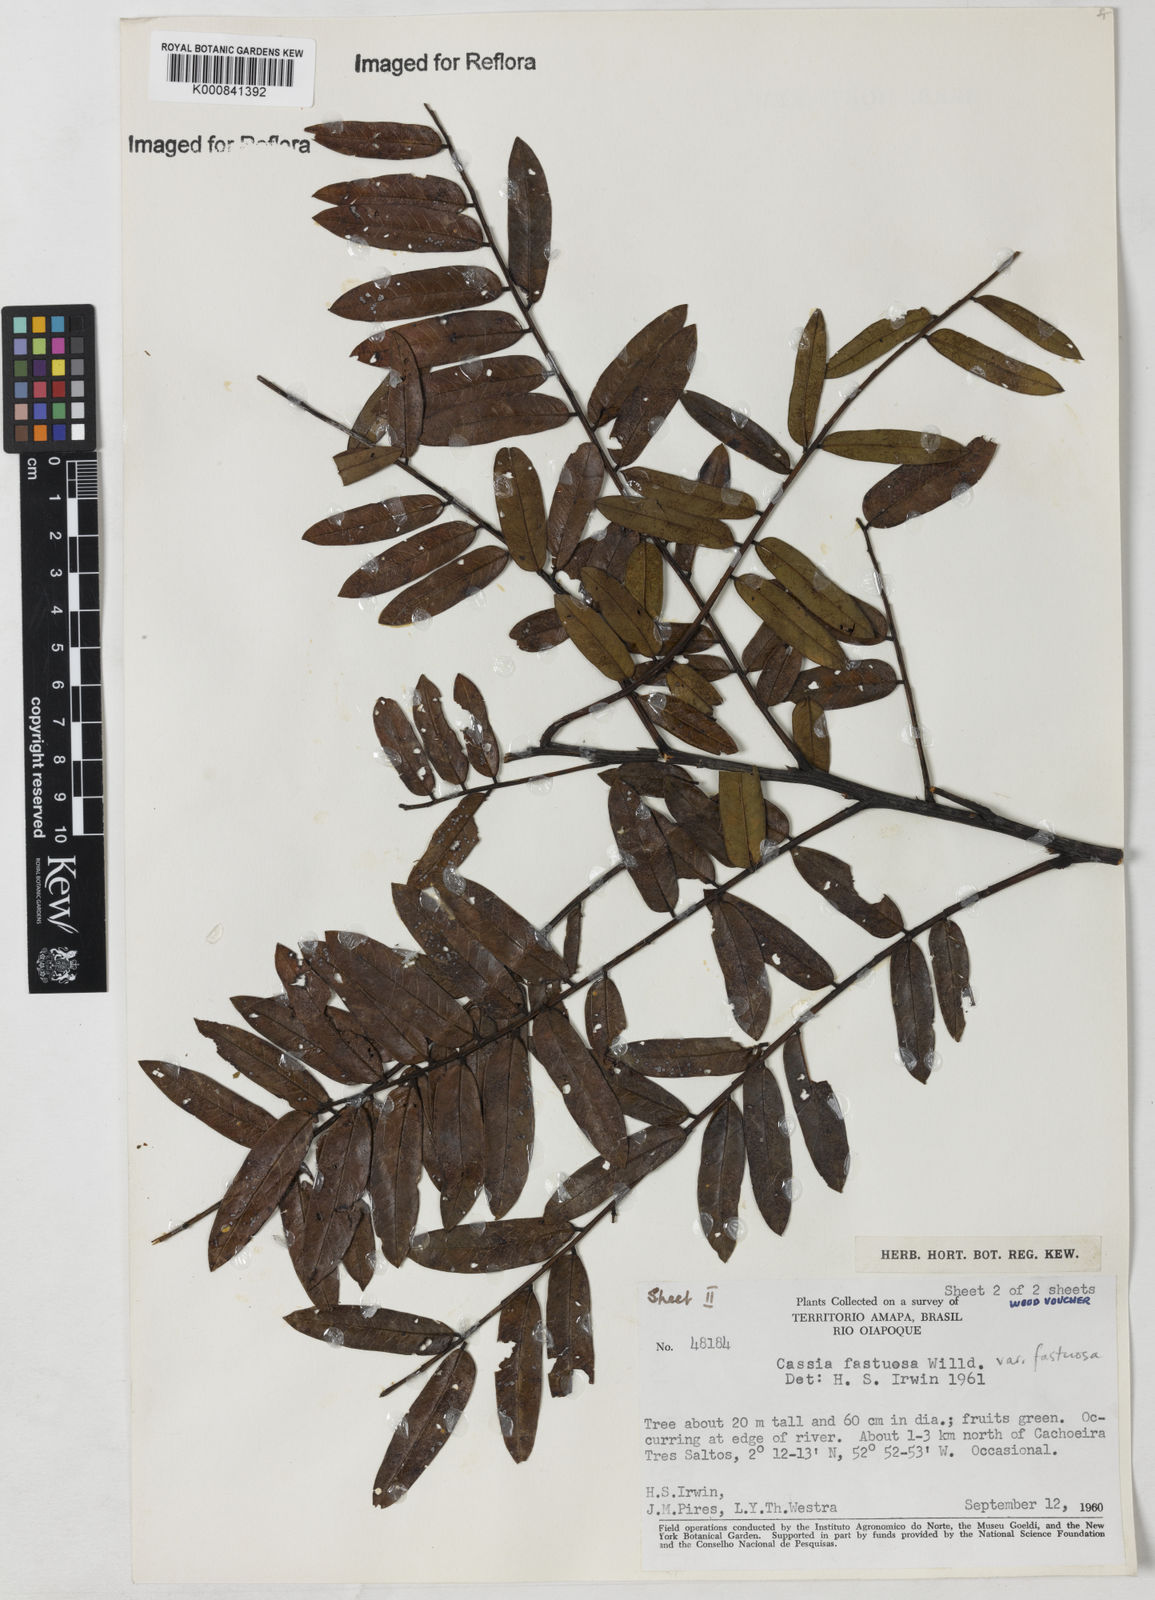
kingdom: Plantae
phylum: Tracheophyta
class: Magnoliopsida
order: Fabales
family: Fabaceae
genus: Cassia
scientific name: Cassia
